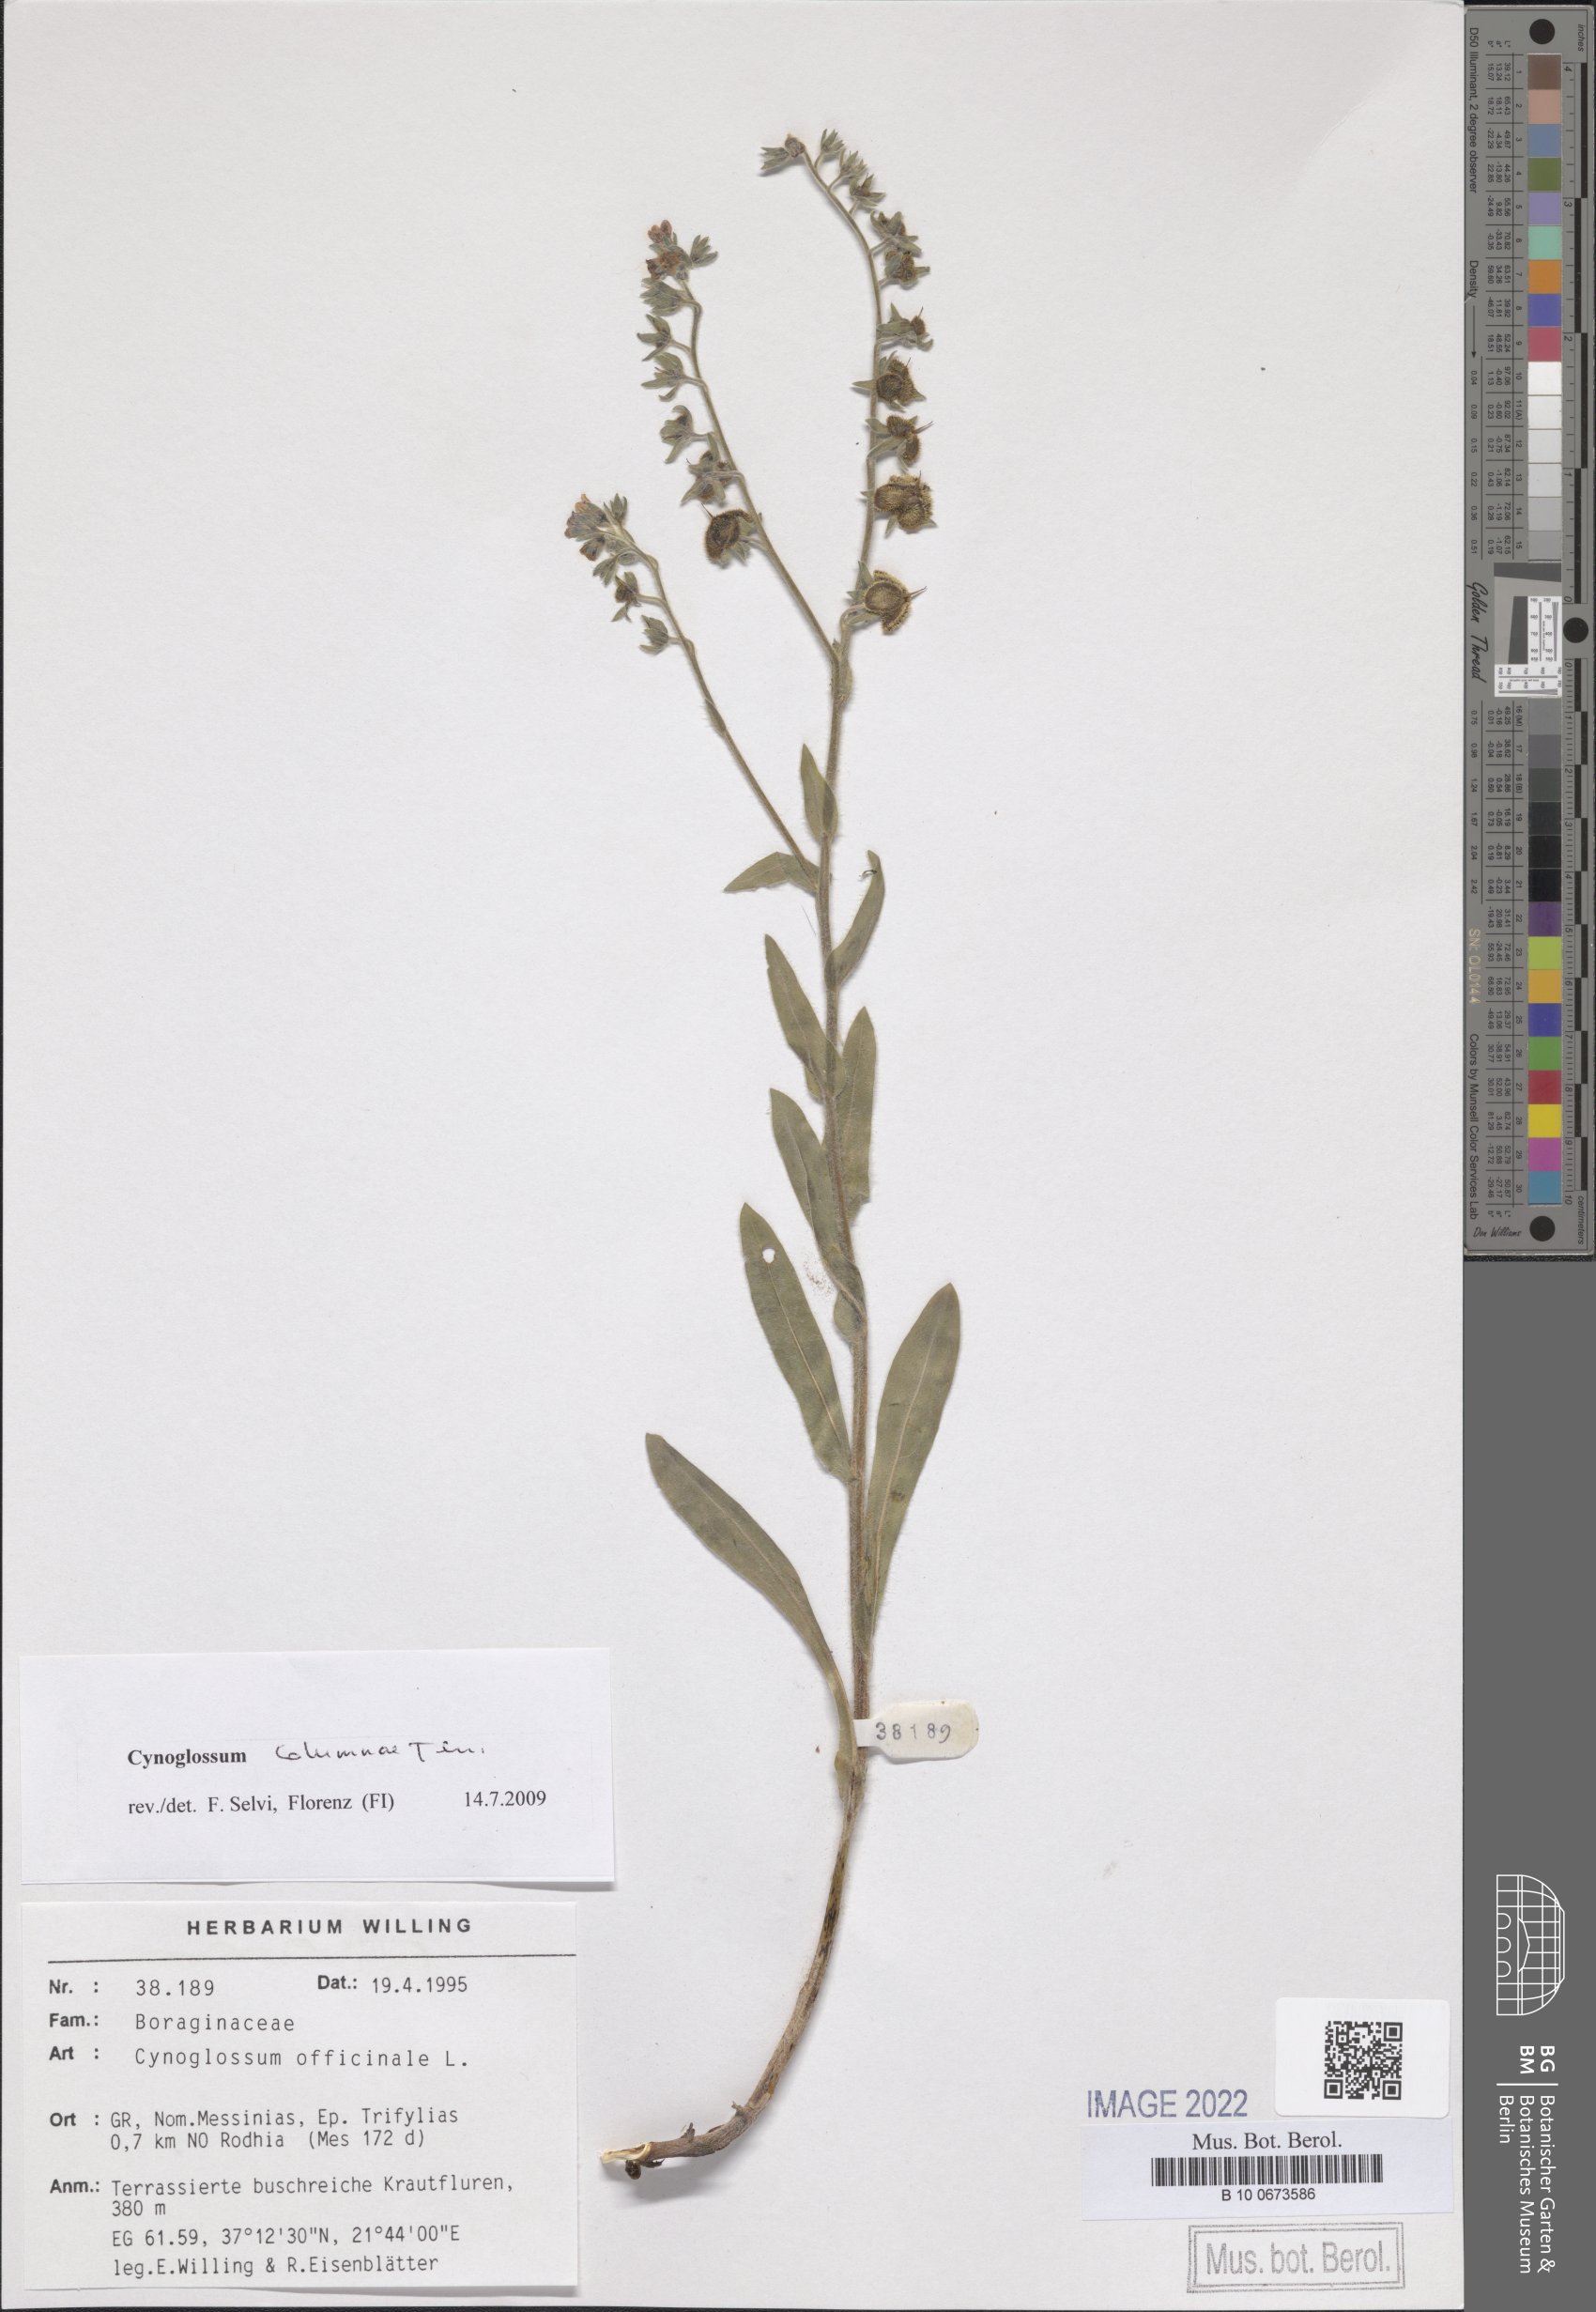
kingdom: Plantae
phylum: Tracheophyta
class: Magnoliopsida
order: Boraginales
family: Boraginaceae
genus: Rindera
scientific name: Rindera columnae
